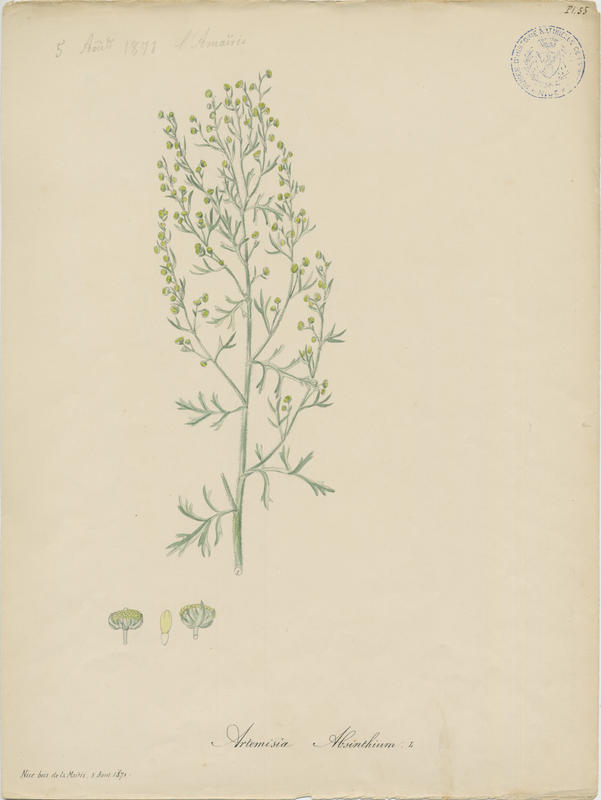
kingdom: Plantae
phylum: Tracheophyta
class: Magnoliopsida
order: Asterales
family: Asteraceae
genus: Artemisia
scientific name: Artemisia absinthium
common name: Wormwood
